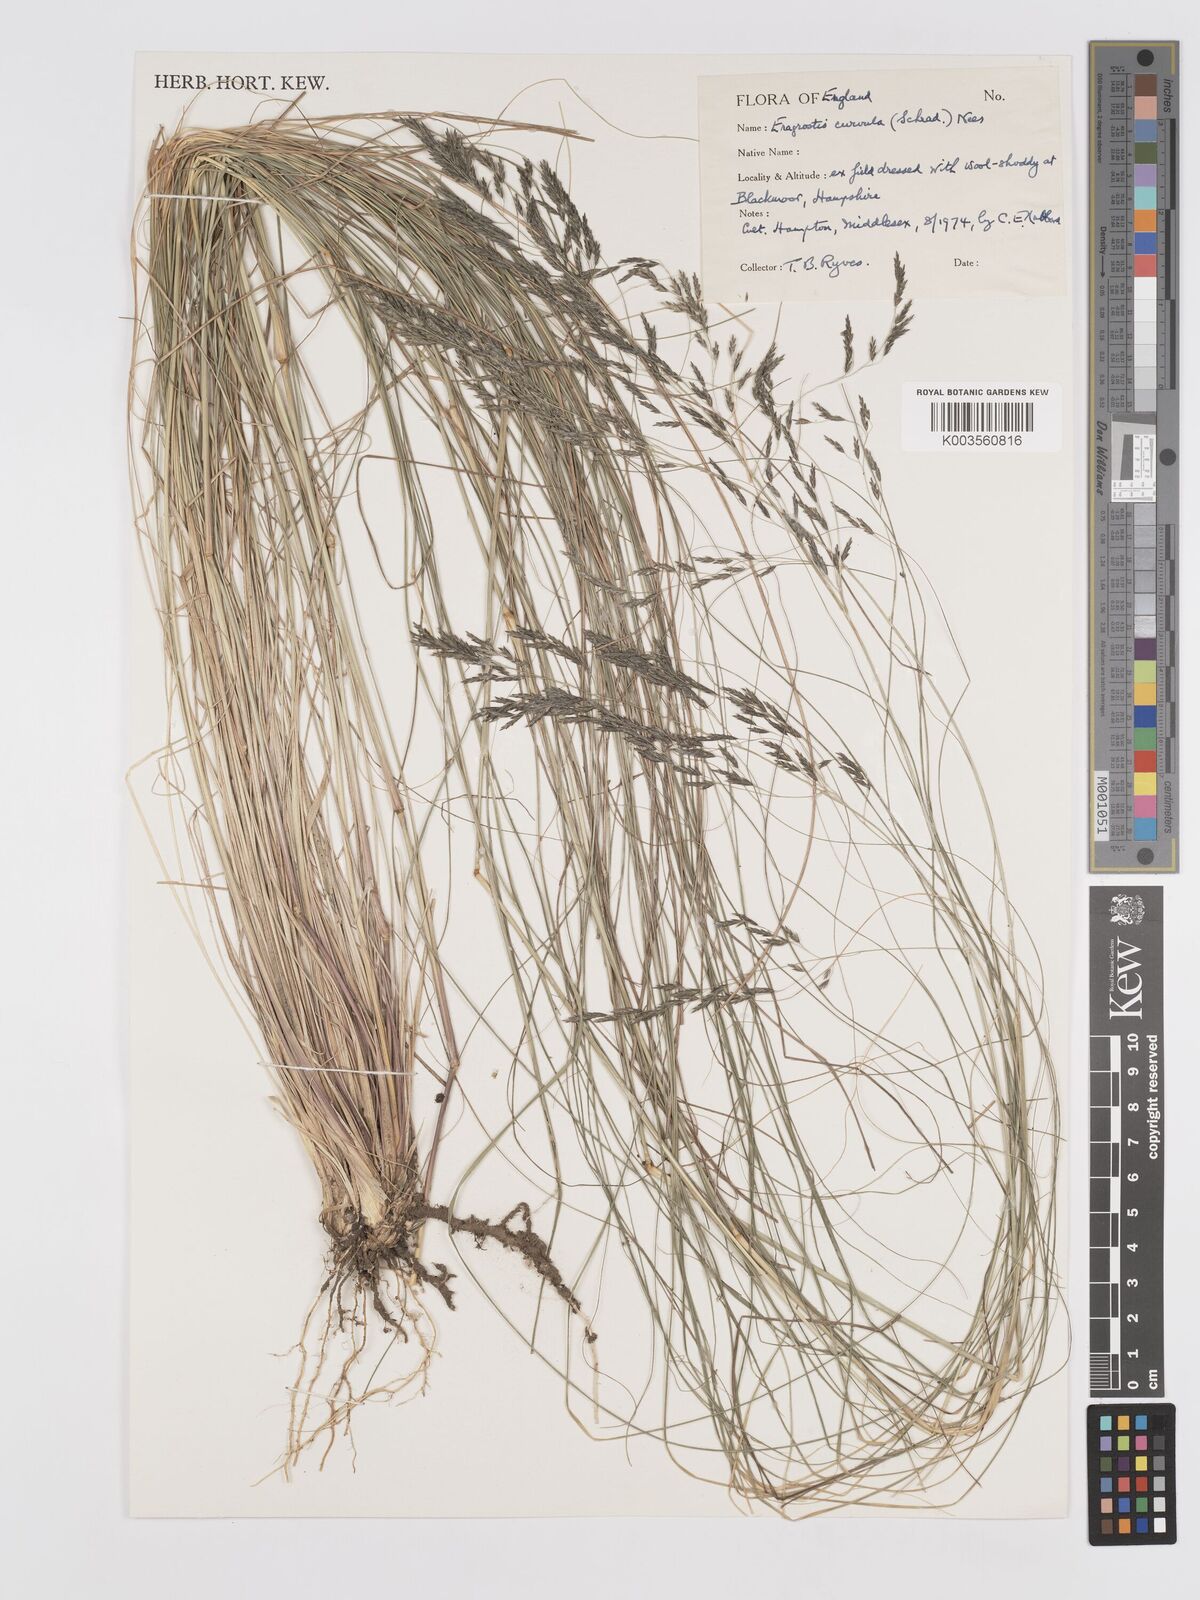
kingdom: Plantae
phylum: Tracheophyta
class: Liliopsida
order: Poales
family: Poaceae
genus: Eragrostis
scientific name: Eragrostis curvula
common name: African love-grass
